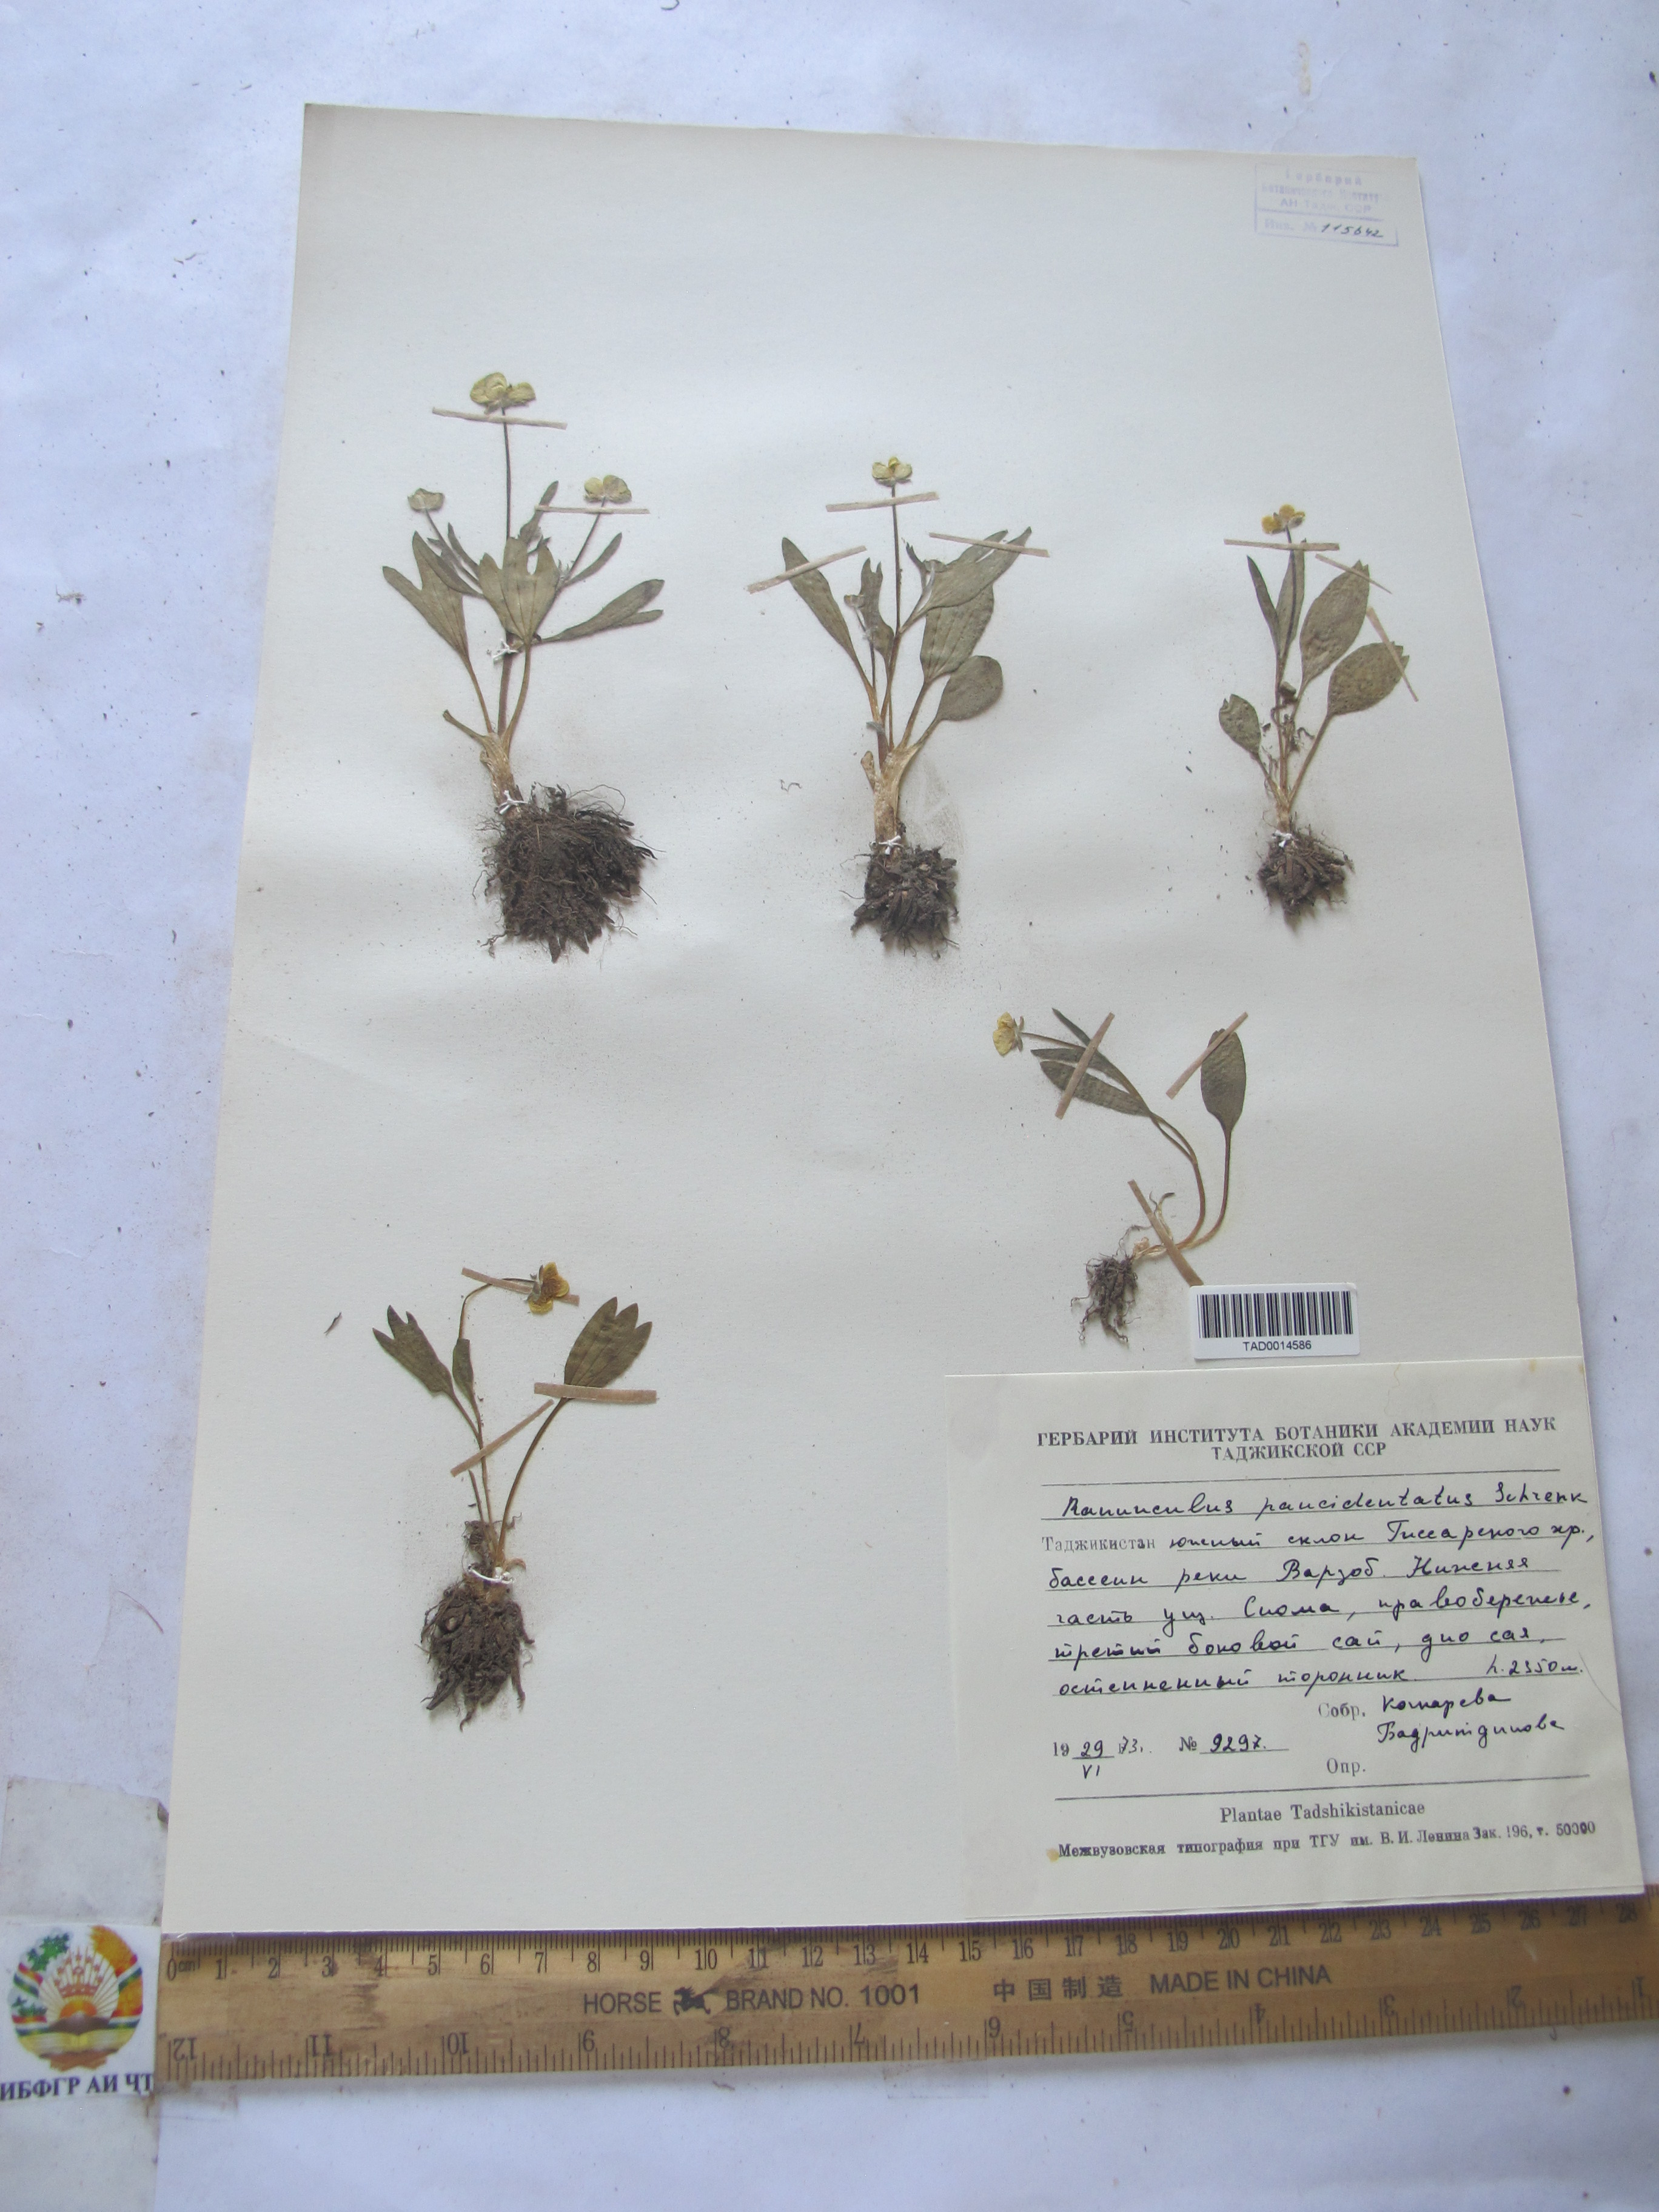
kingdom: Plantae
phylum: Tracheophyta
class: Magnoliopsida
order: Ranunculales
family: Ranunculaceae
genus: Ranunculus
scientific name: Ranunculus paucidentatus
